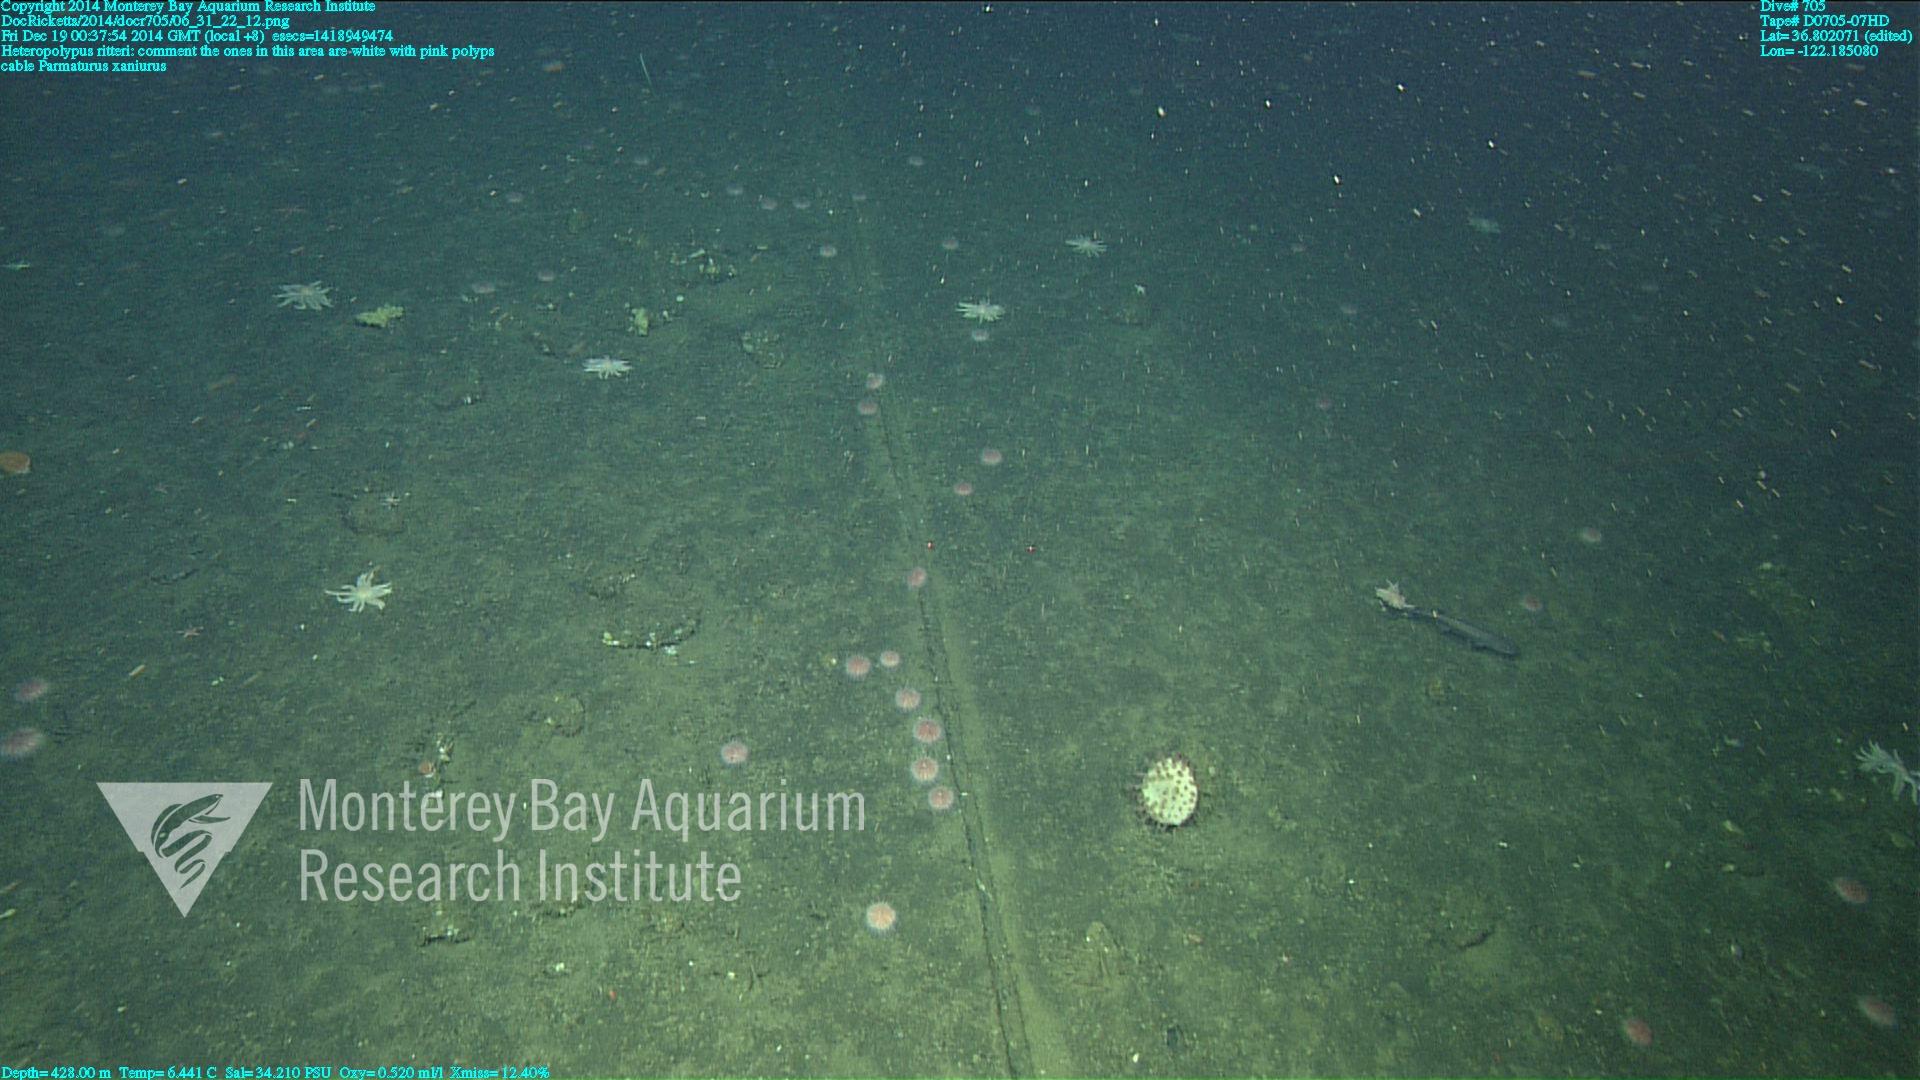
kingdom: Animalia
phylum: Cnidaria
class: Anthozoa
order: Scleralcyonacea
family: Coralliidae
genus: Heteropolypus
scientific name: Heteropolypus ritteri
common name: Ritter's soft coral
